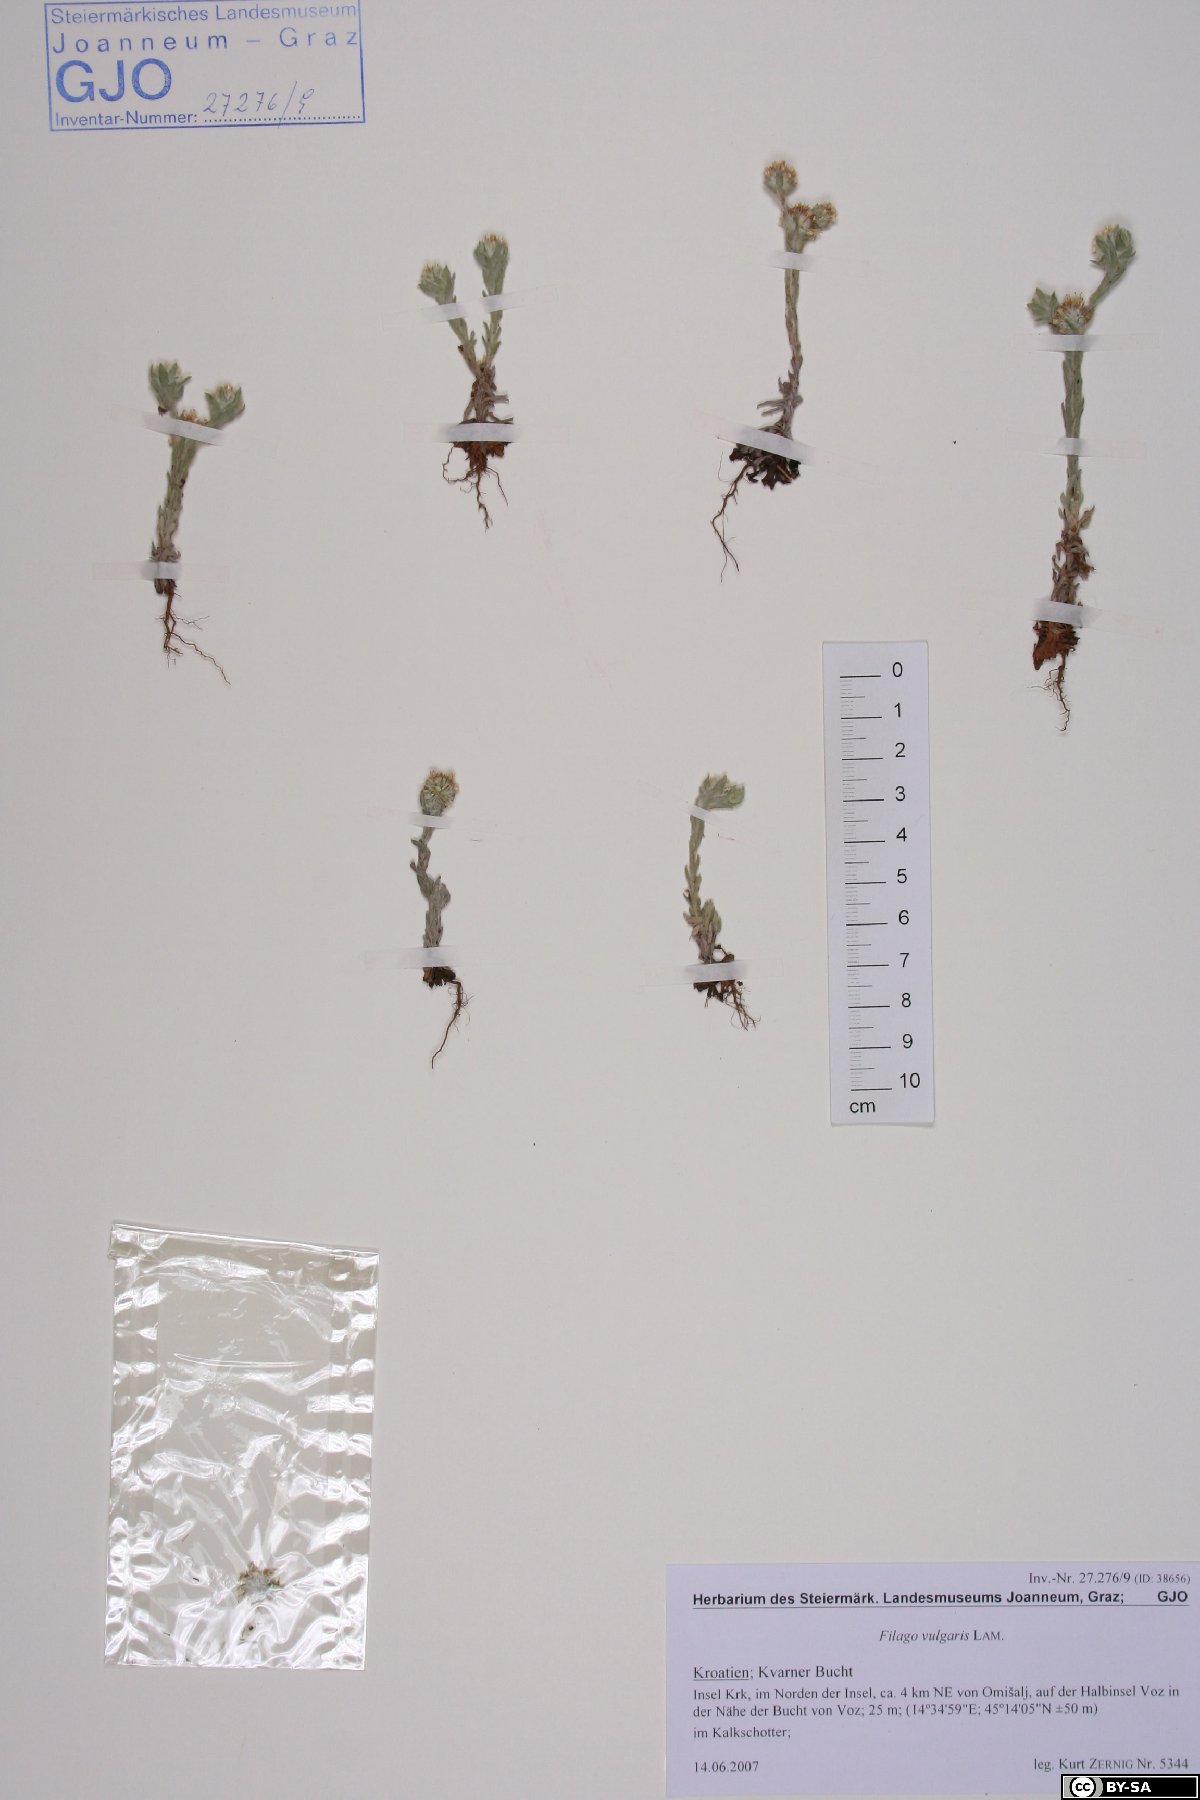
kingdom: Plantae
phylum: Tracheophyta
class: Magnoliopsida
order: Asterales
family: Asteraceae
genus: Filago
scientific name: Filago germanica
